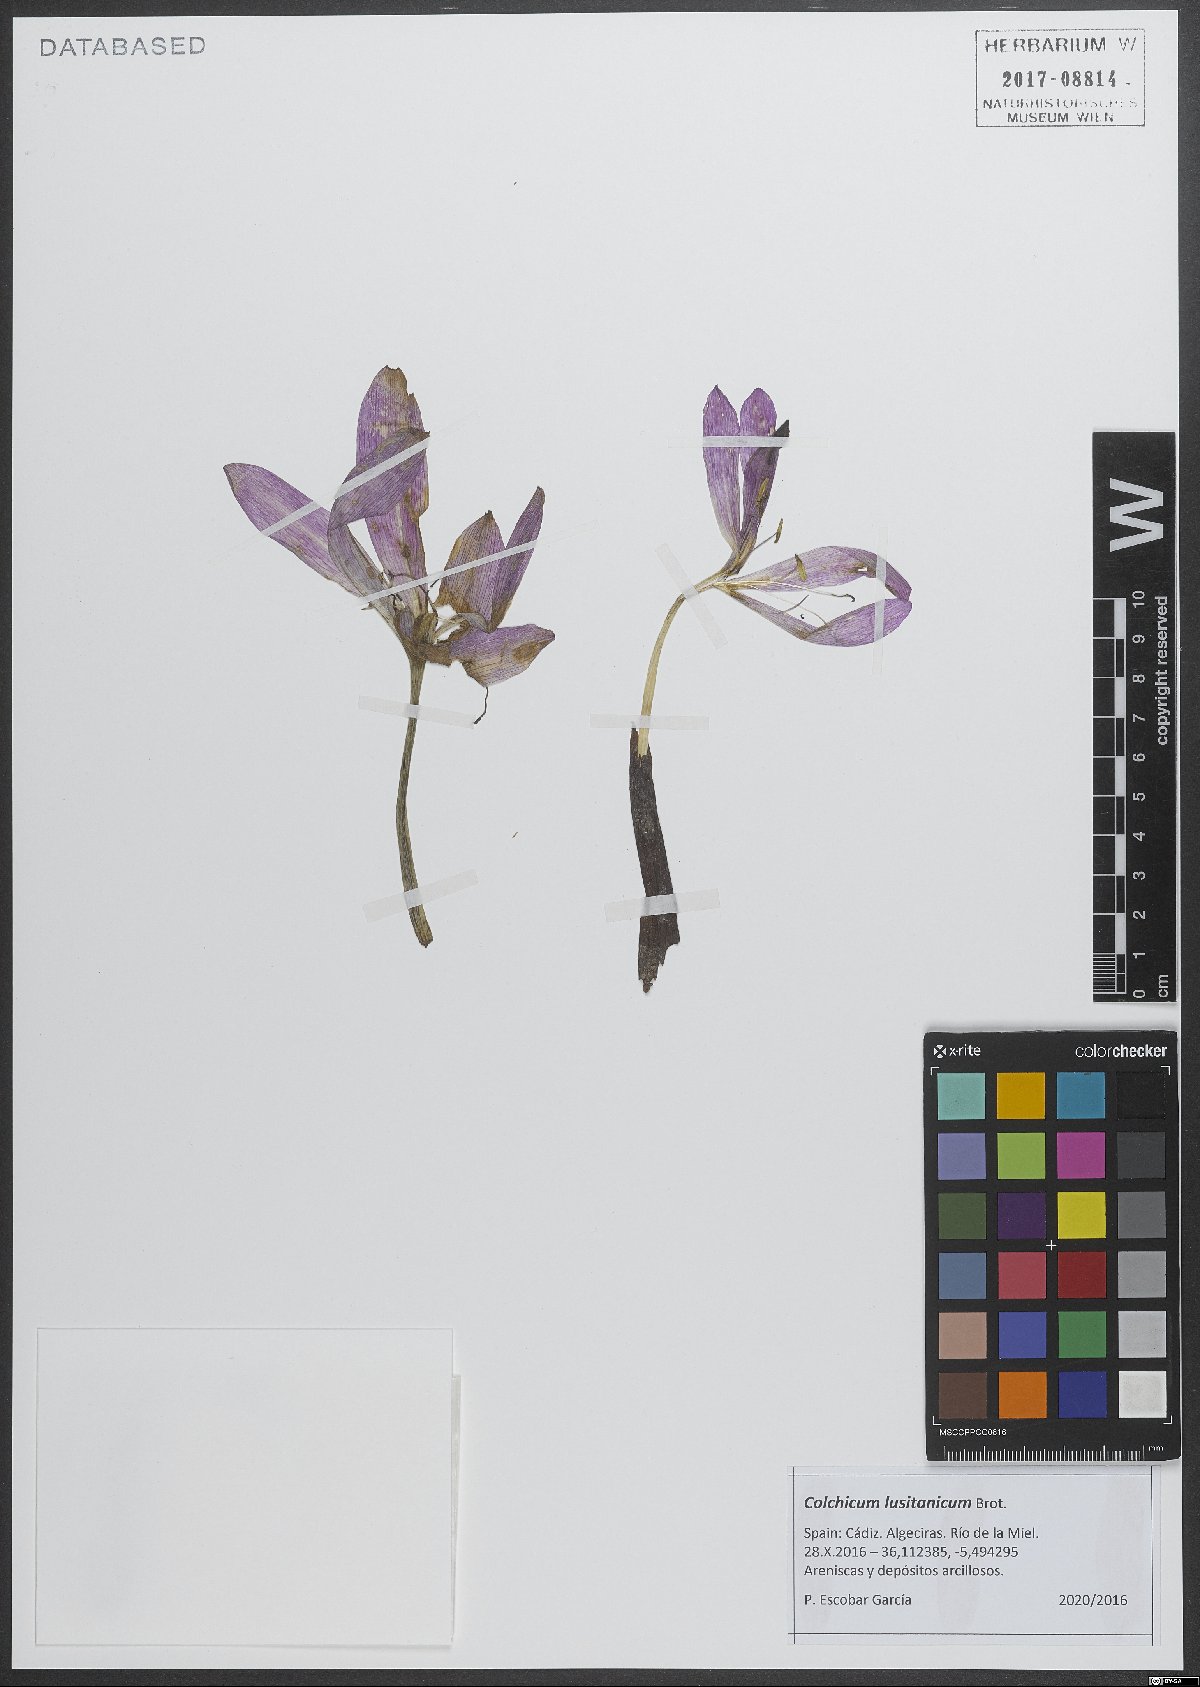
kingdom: Plantae
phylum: Tracheophyta
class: Liliopsida
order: Liliales
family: Colchicaceae
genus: Colchicum
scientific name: Colchicum lusitanum
